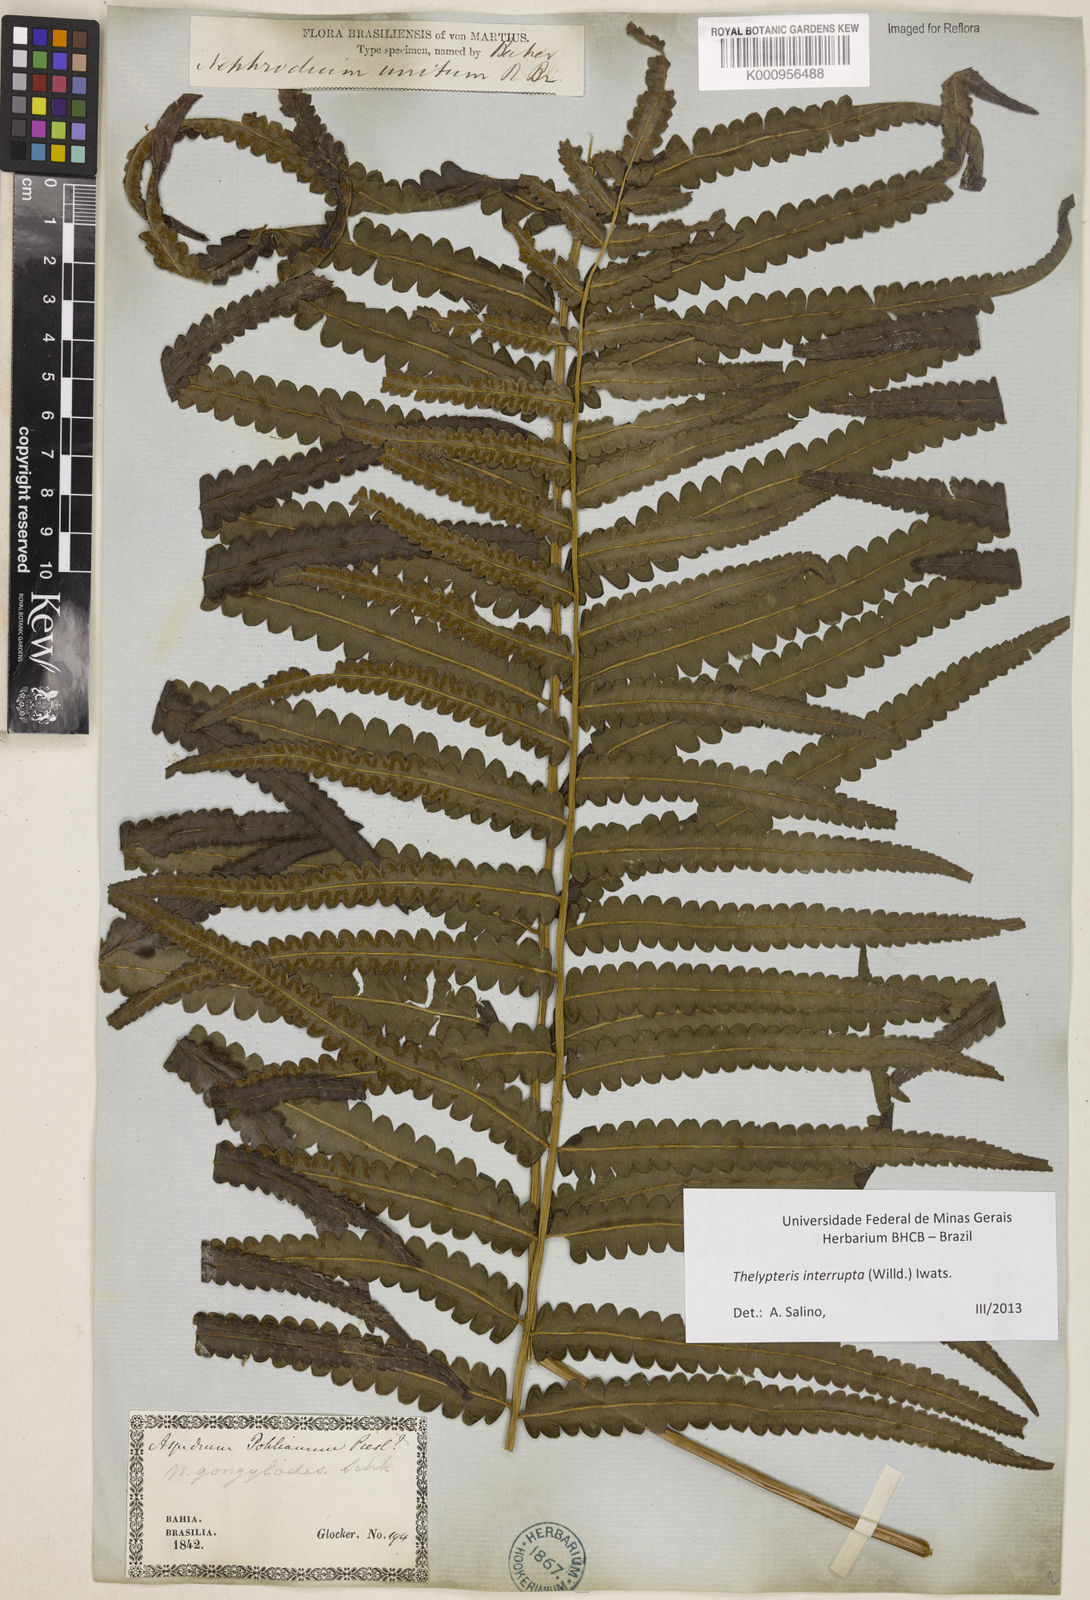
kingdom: Plantae
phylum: Tracheophyta
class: Polypodiopsida
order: Polypodiales
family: Thelypteridaceae
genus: Cyclosorus
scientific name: Cyclosorus interruptus
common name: Neke fern
